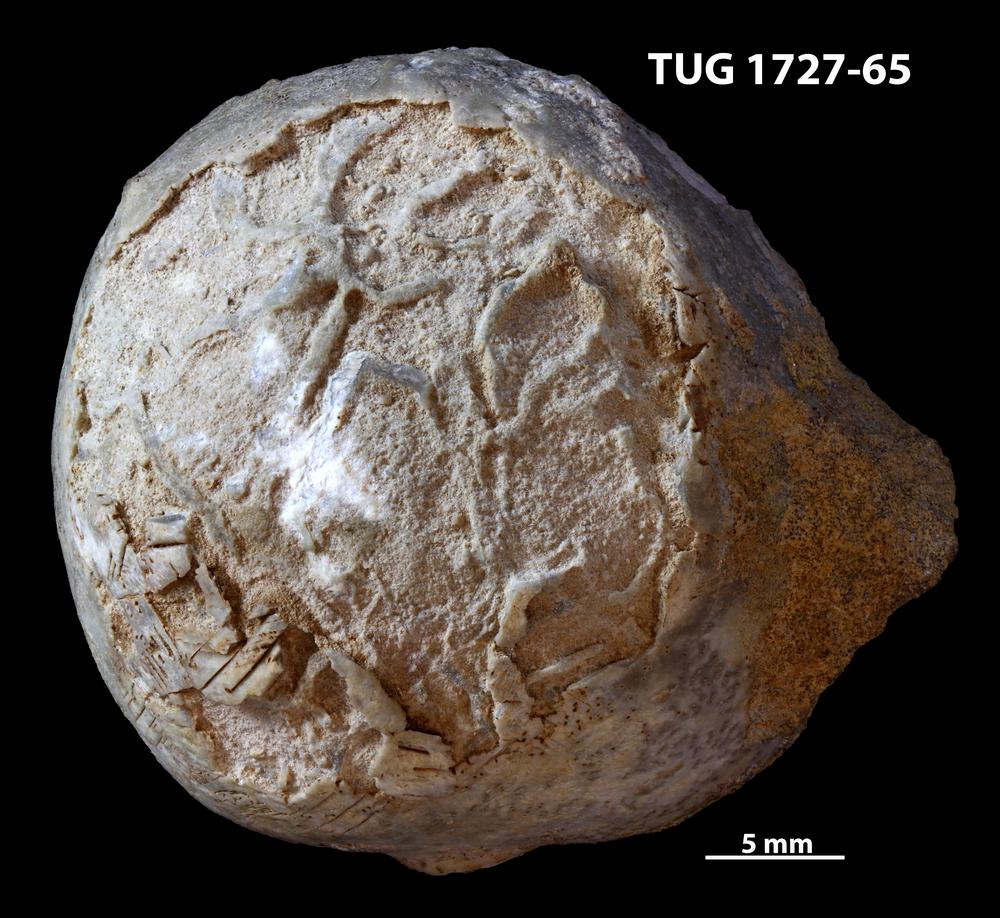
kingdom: Animalia
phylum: Echinodermata
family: Sphaeronitidae
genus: Eucystis
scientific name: Eucystis Glyptosphaerites leuchtenbergi
